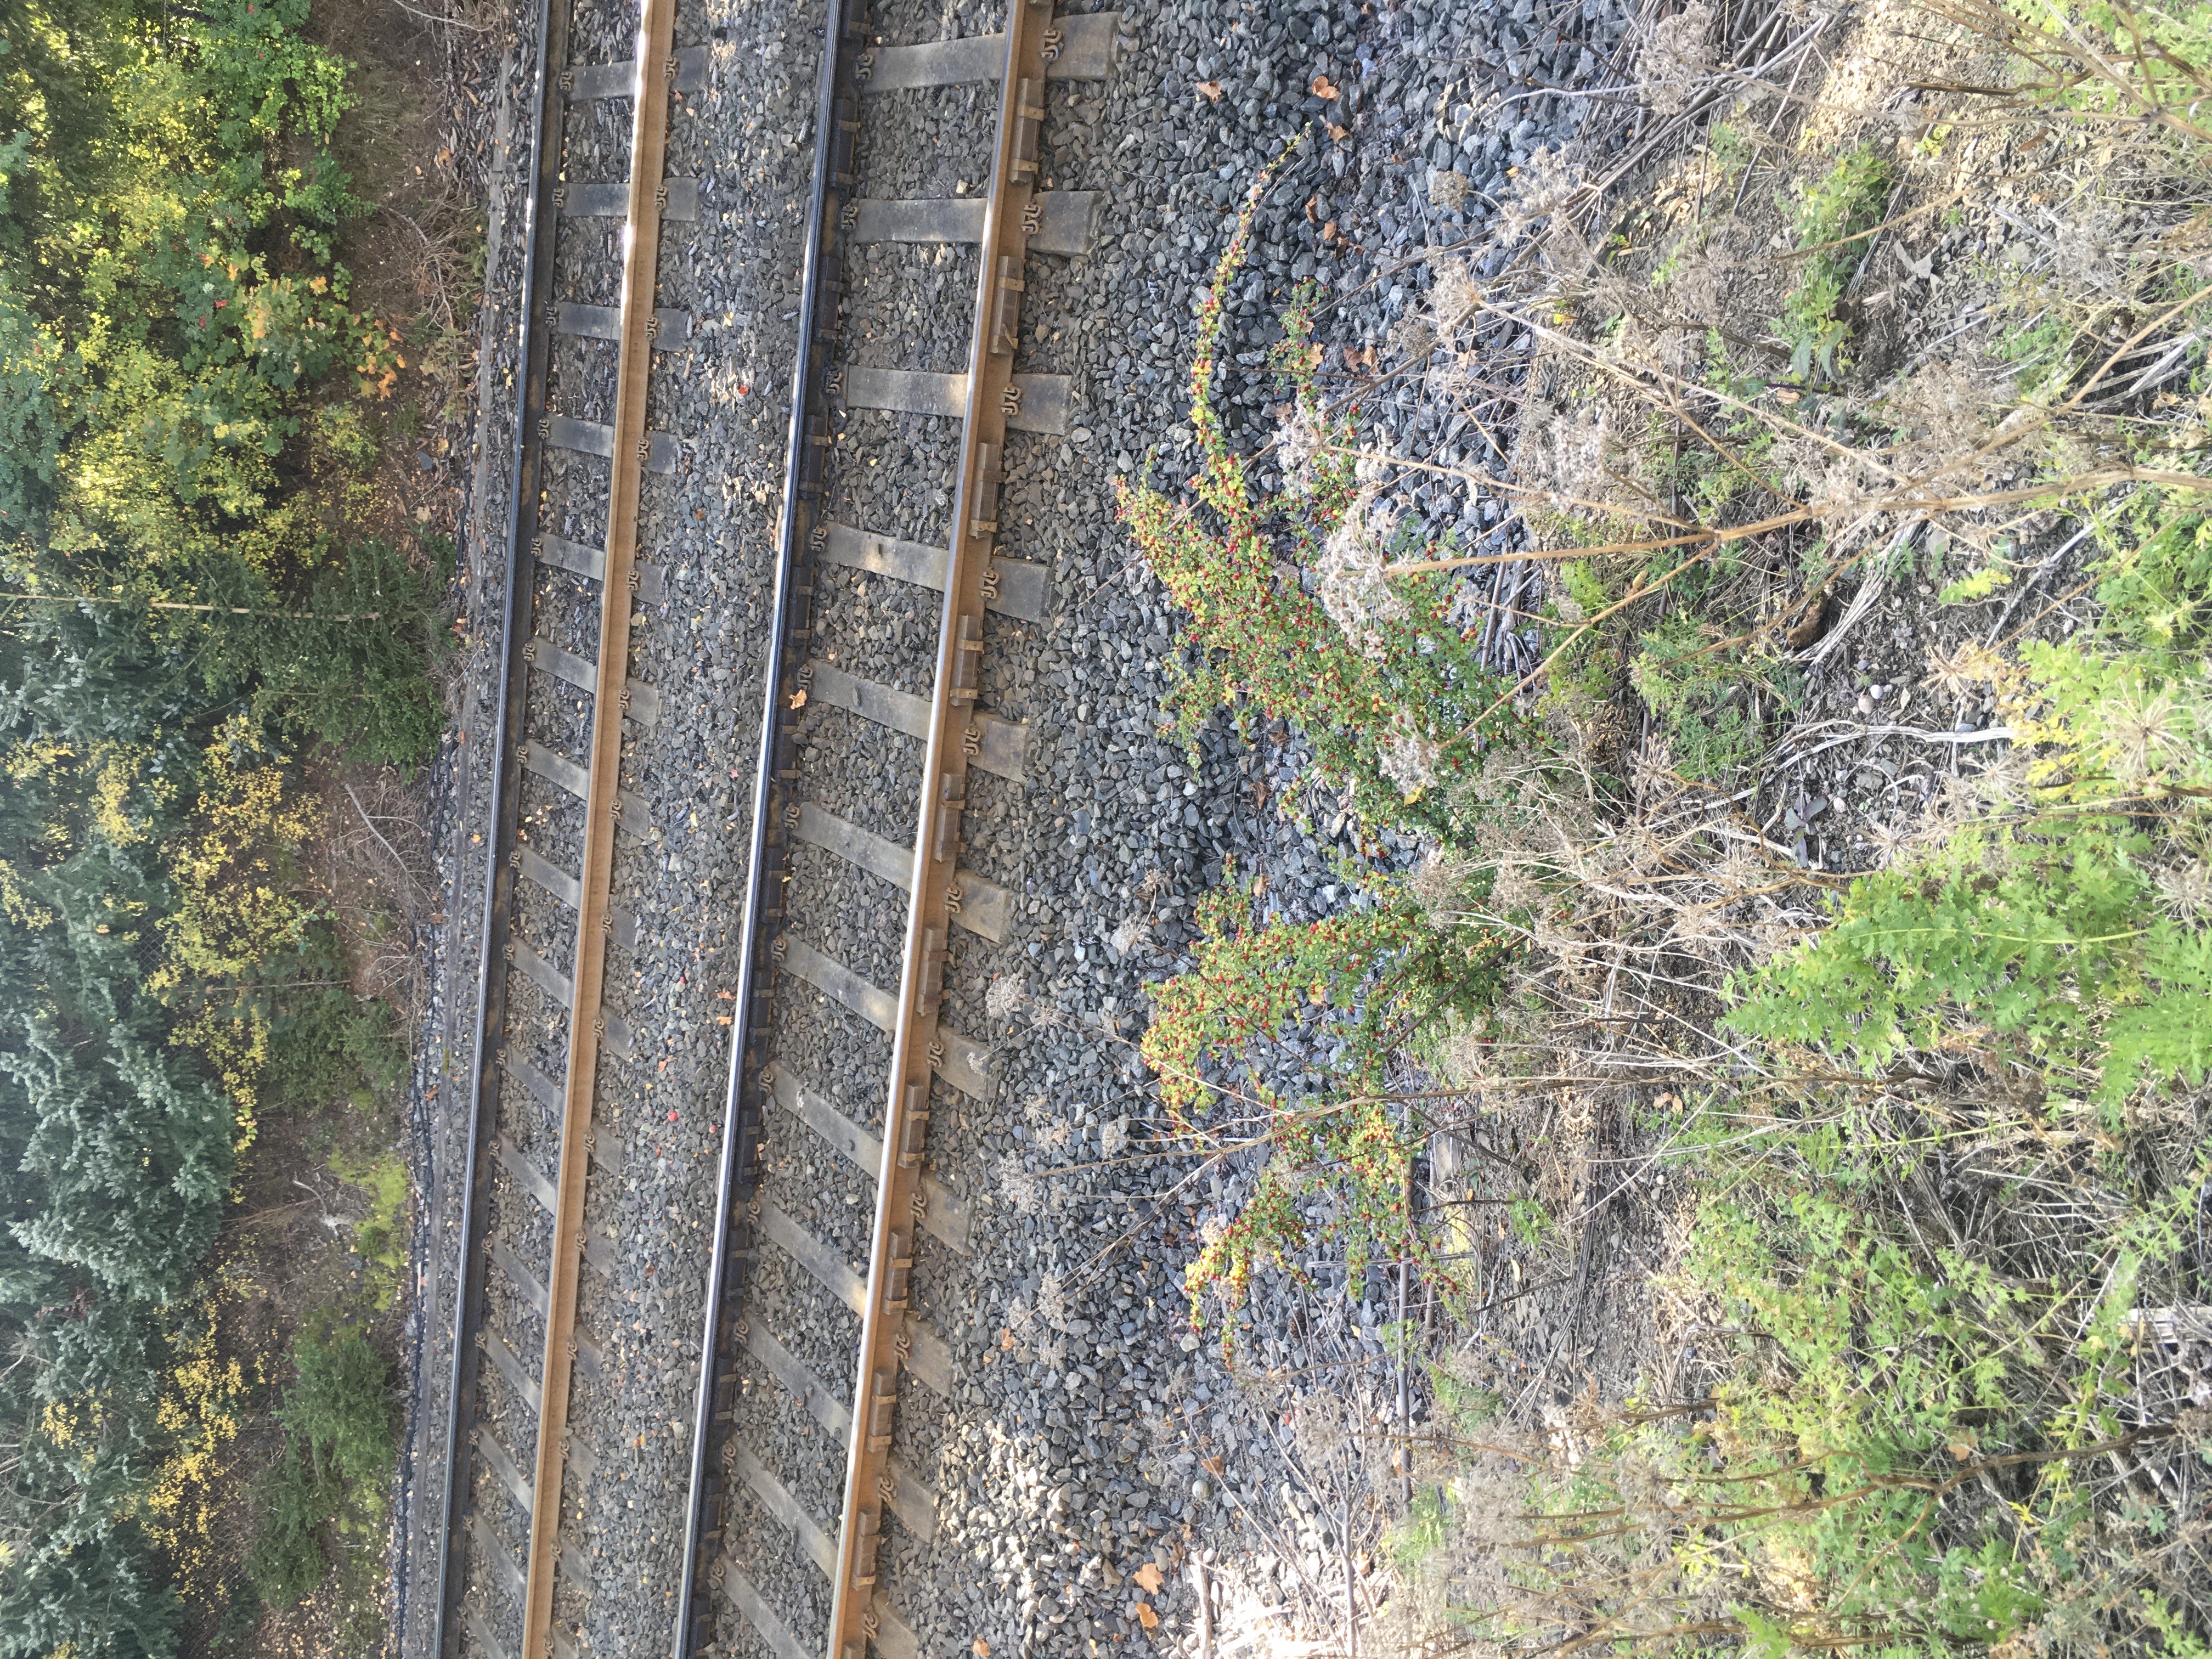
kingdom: Plantae
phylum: Tracheophyta
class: Magnoliopsida
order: Rosales
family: Rosaceae
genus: Cotoneaster
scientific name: Cotoneaster divaricatus
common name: sprikemispel
